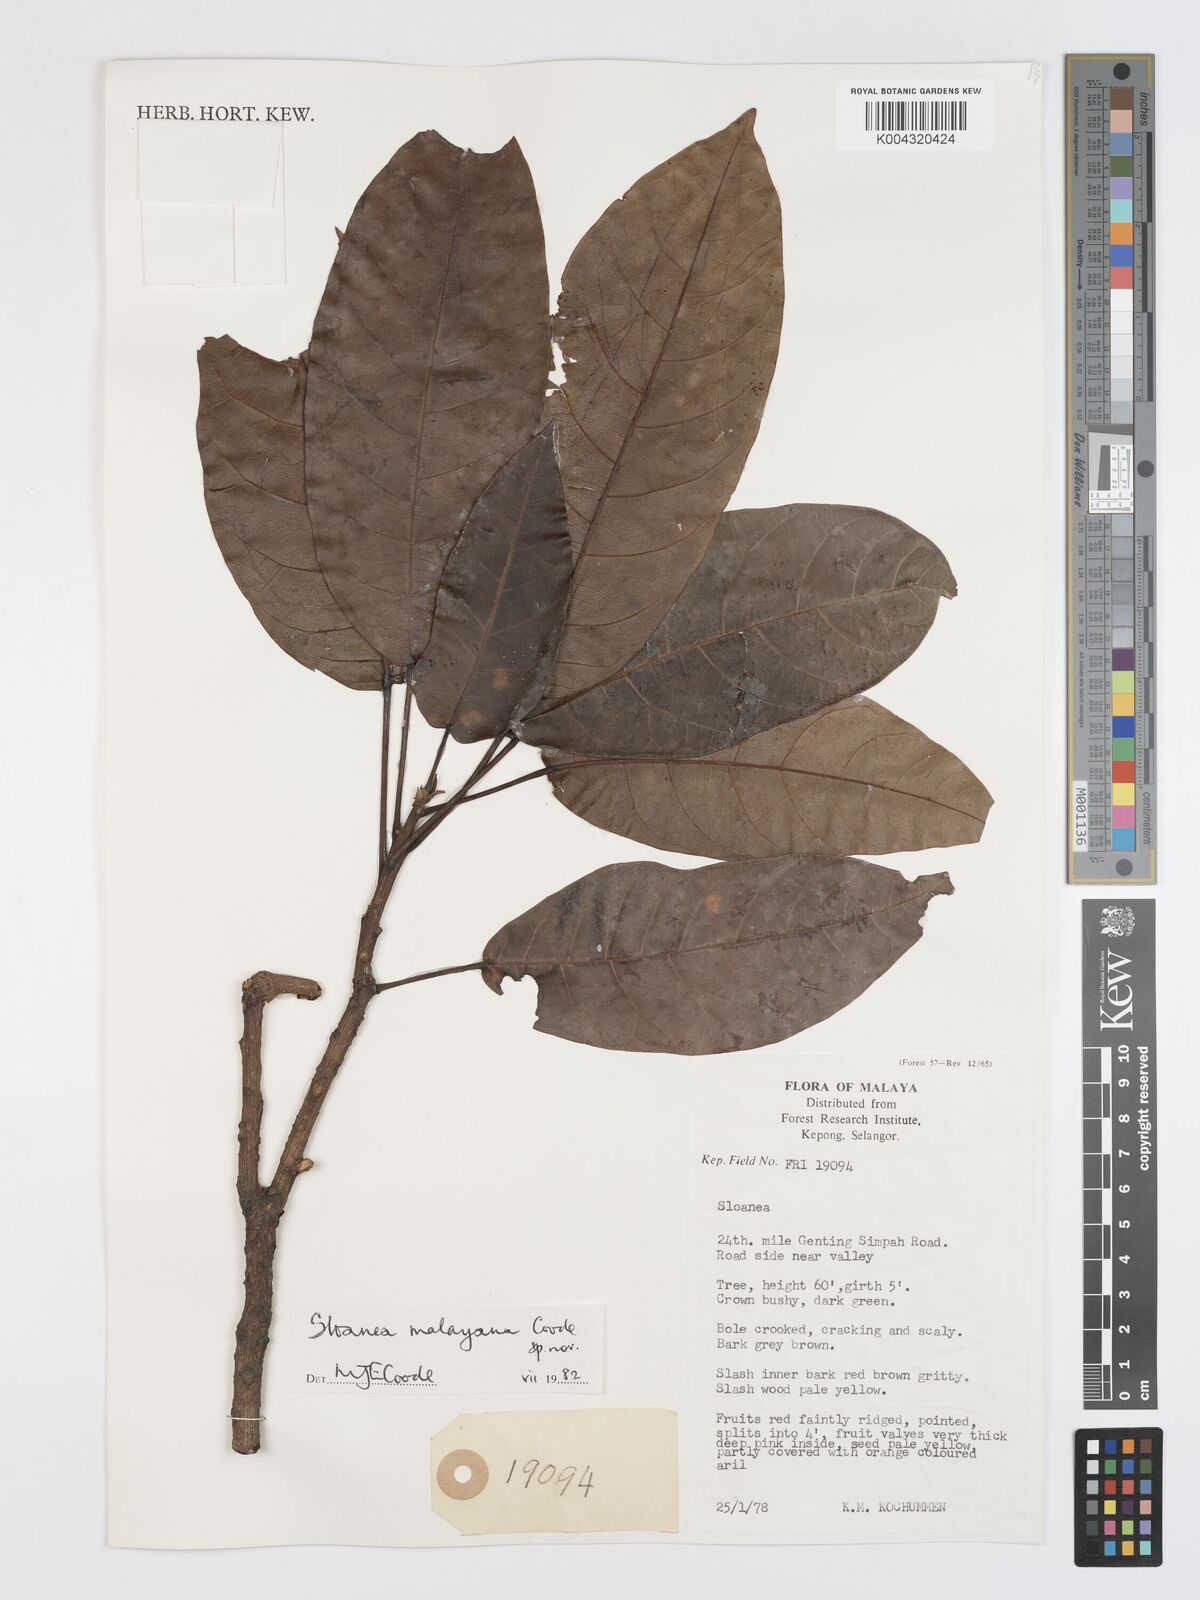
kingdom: Plantae
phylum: Tracheophyta
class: Magnoliopsida
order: Oxalidales
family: Elaeocarpaceae
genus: Sloanea
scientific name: Sloanea malayana
